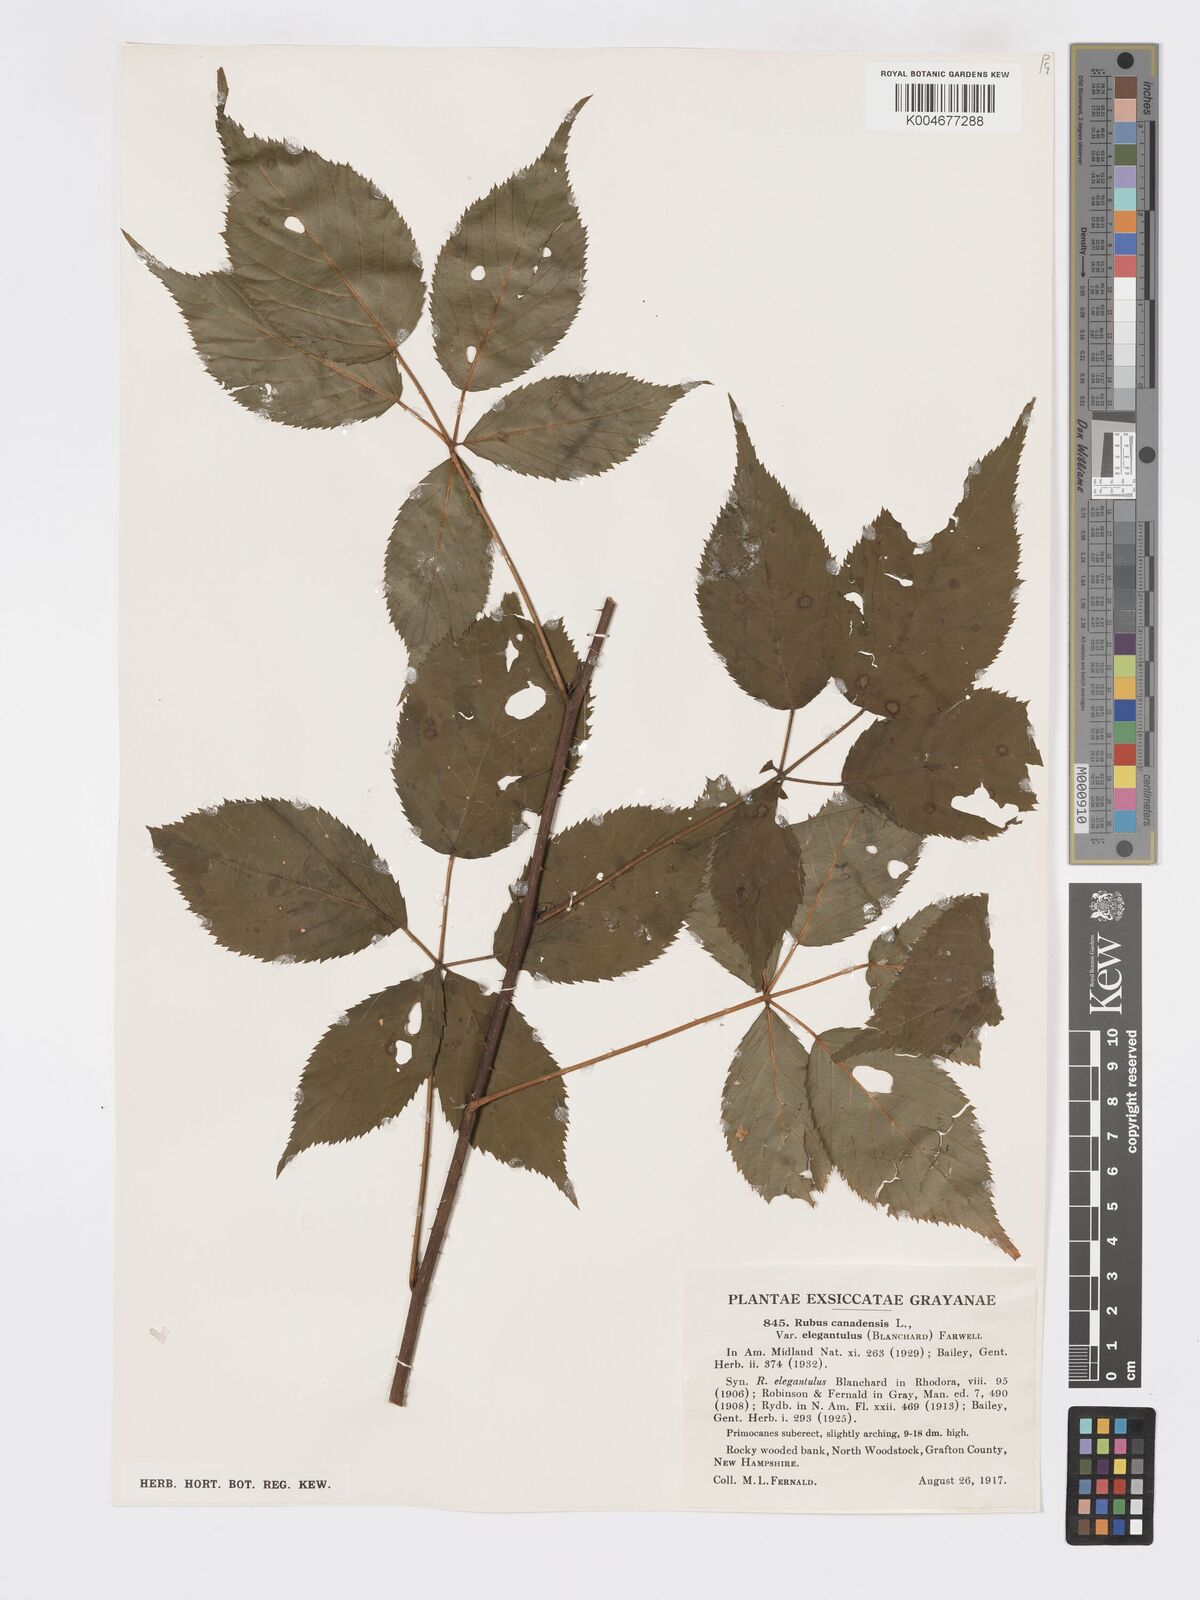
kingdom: Plantae
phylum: Tracheophyta
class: Magnoliopsida
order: Rosales
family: Rosaceae
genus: Rubus
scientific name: Rubus canadensis
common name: Smooth blackberry
